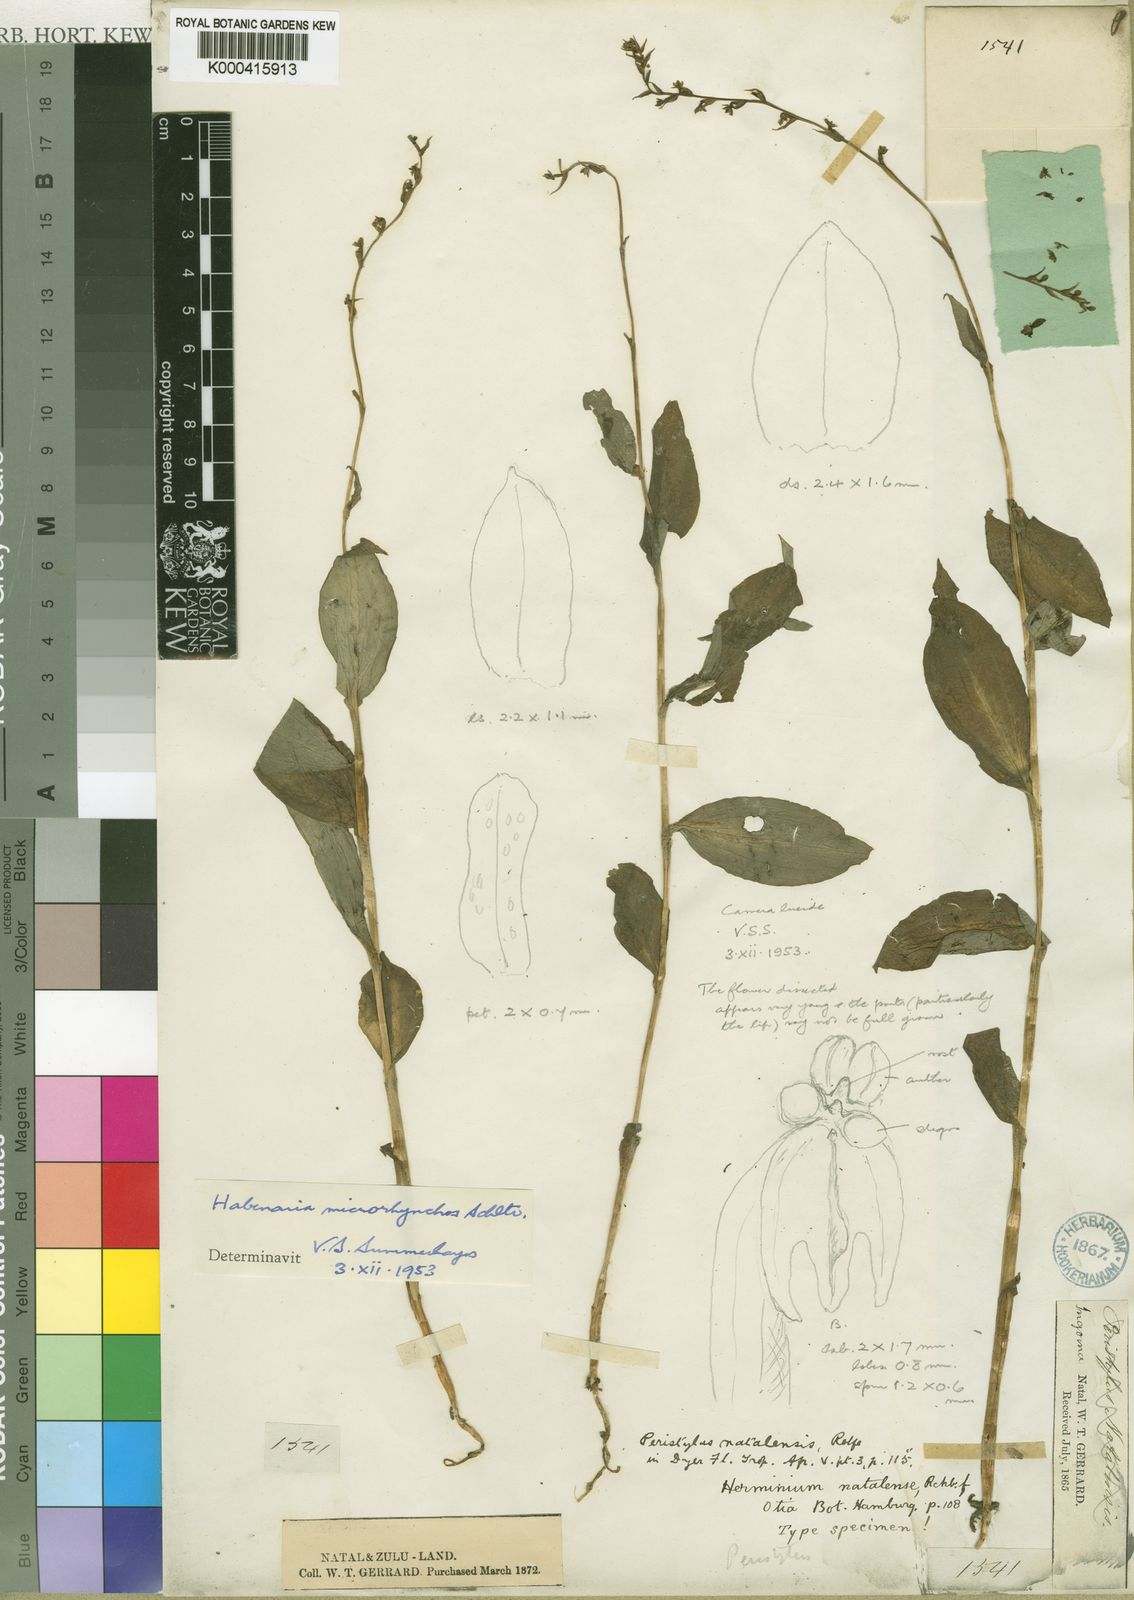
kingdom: Plantae
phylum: Tracheophyta
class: Liliopsida
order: Asparagales
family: Orchidaceae
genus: Habenaria
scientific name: Habenaria petitiana
